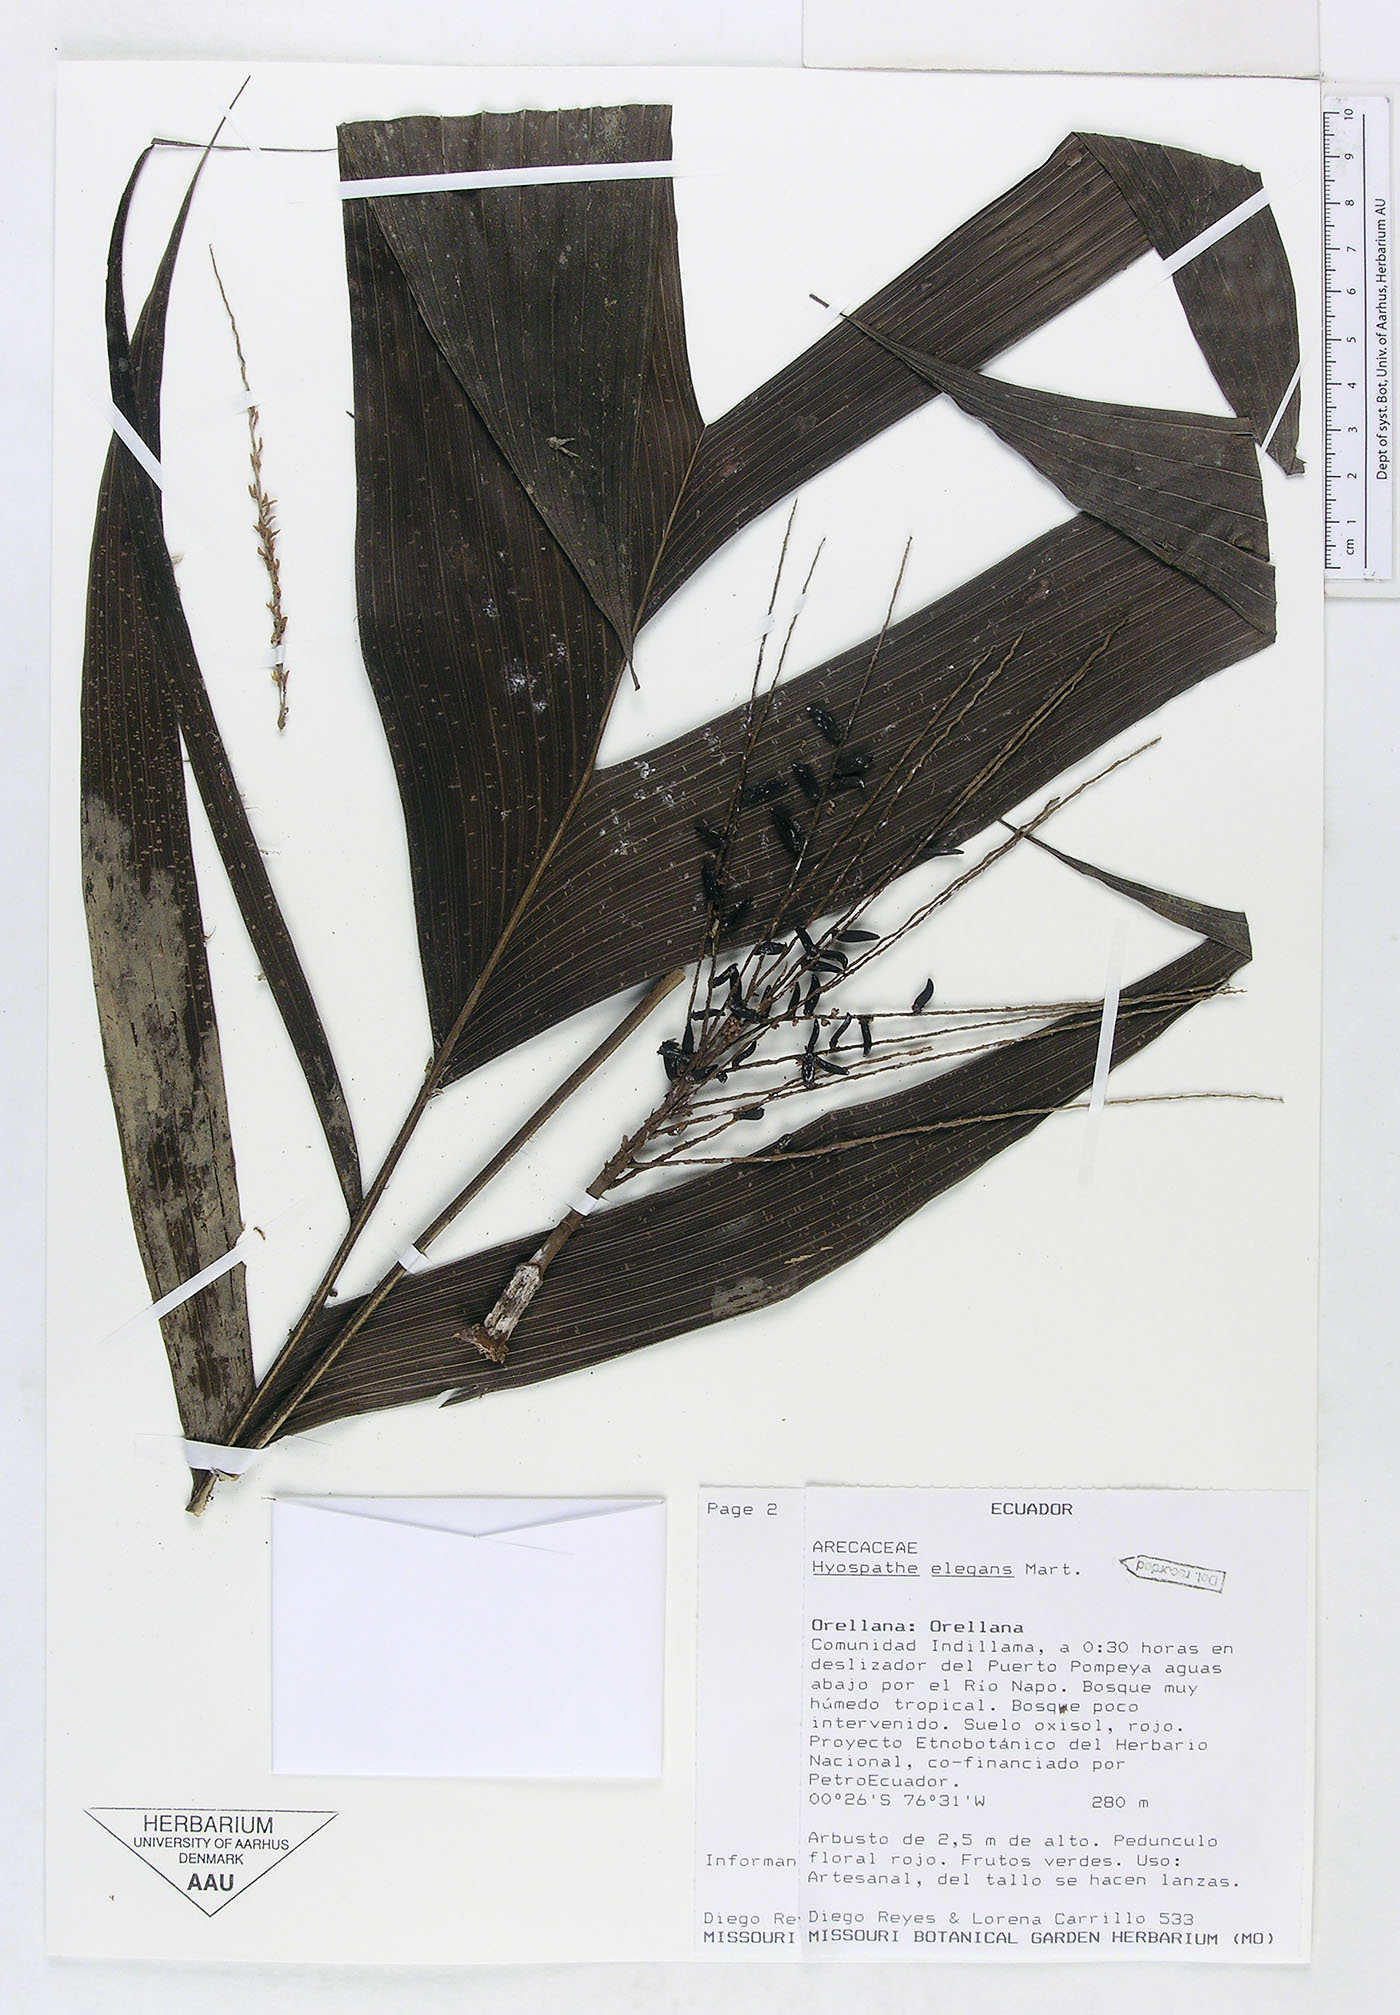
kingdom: Plantae
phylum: Tracheophyta
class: Liliopsida
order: Arecales
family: Arecaceae
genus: Hyospathe
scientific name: Hyospathe elegans
